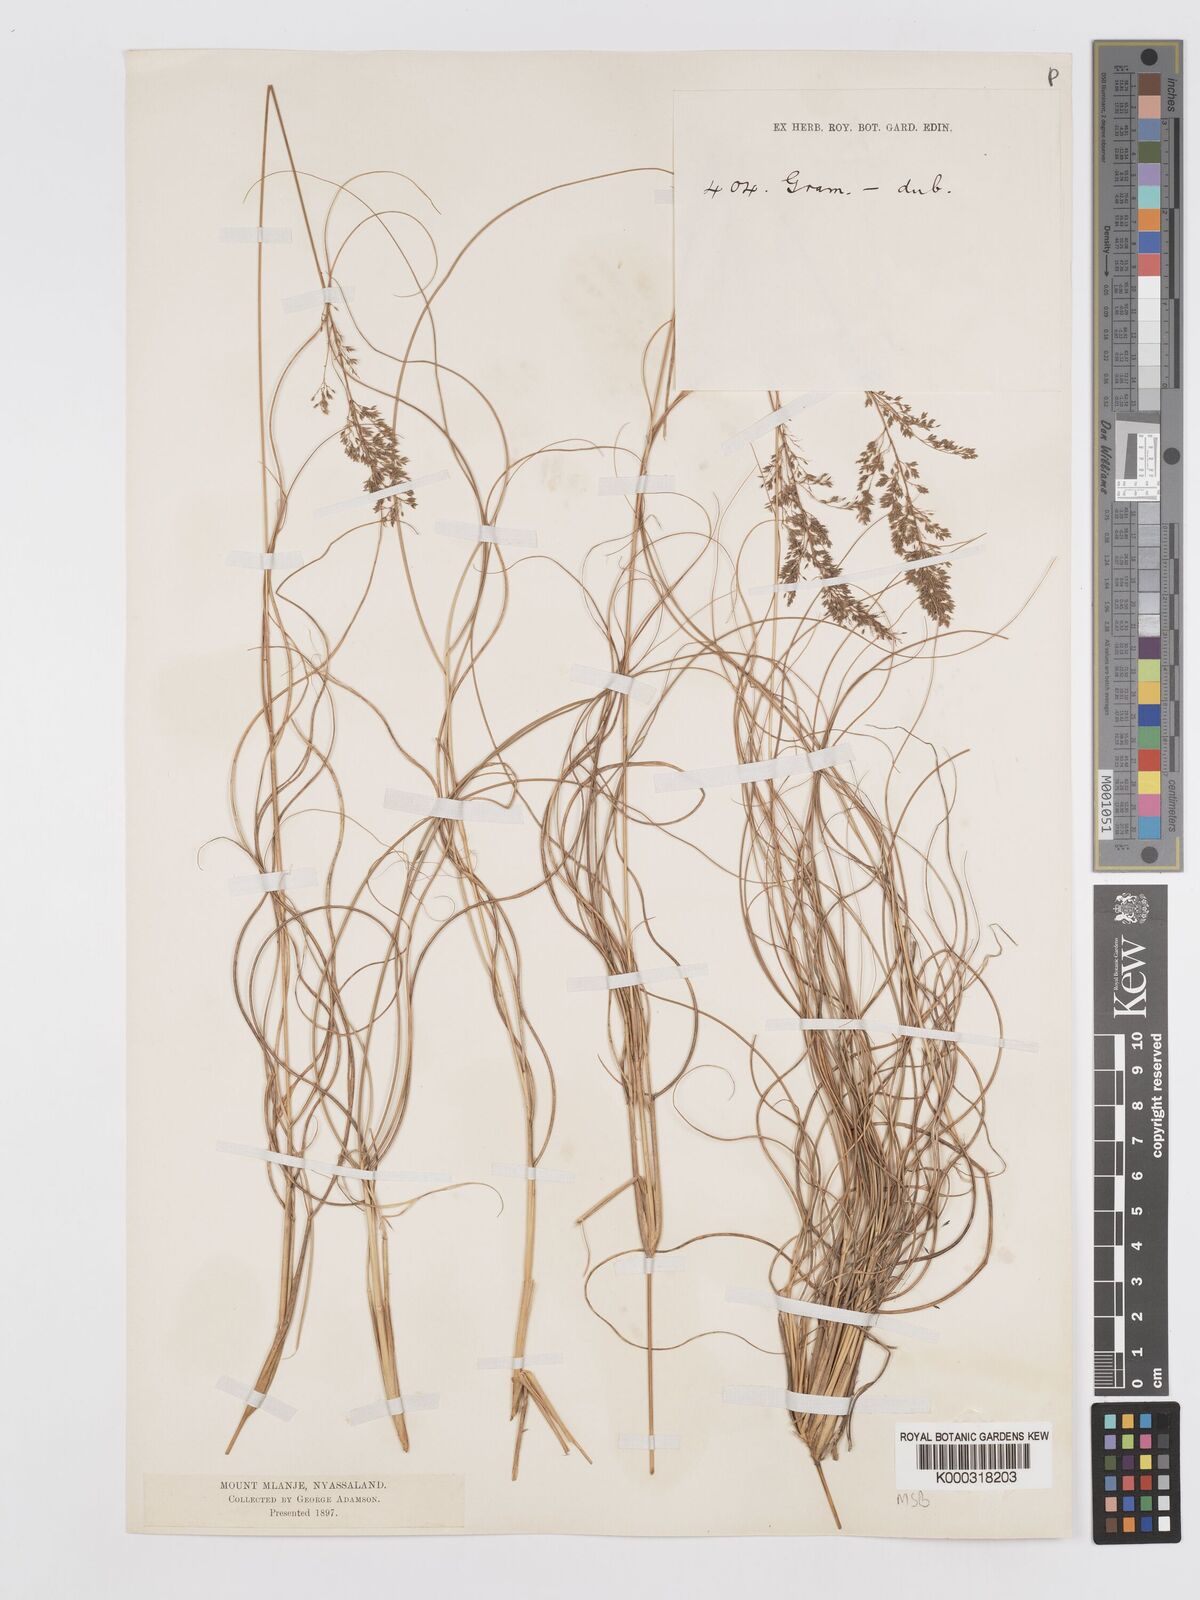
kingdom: Plantae
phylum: Tracheophyta
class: Liliopsida
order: Poales
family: Poaceae
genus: Eragrostis
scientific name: Eragrostis fastigiata
